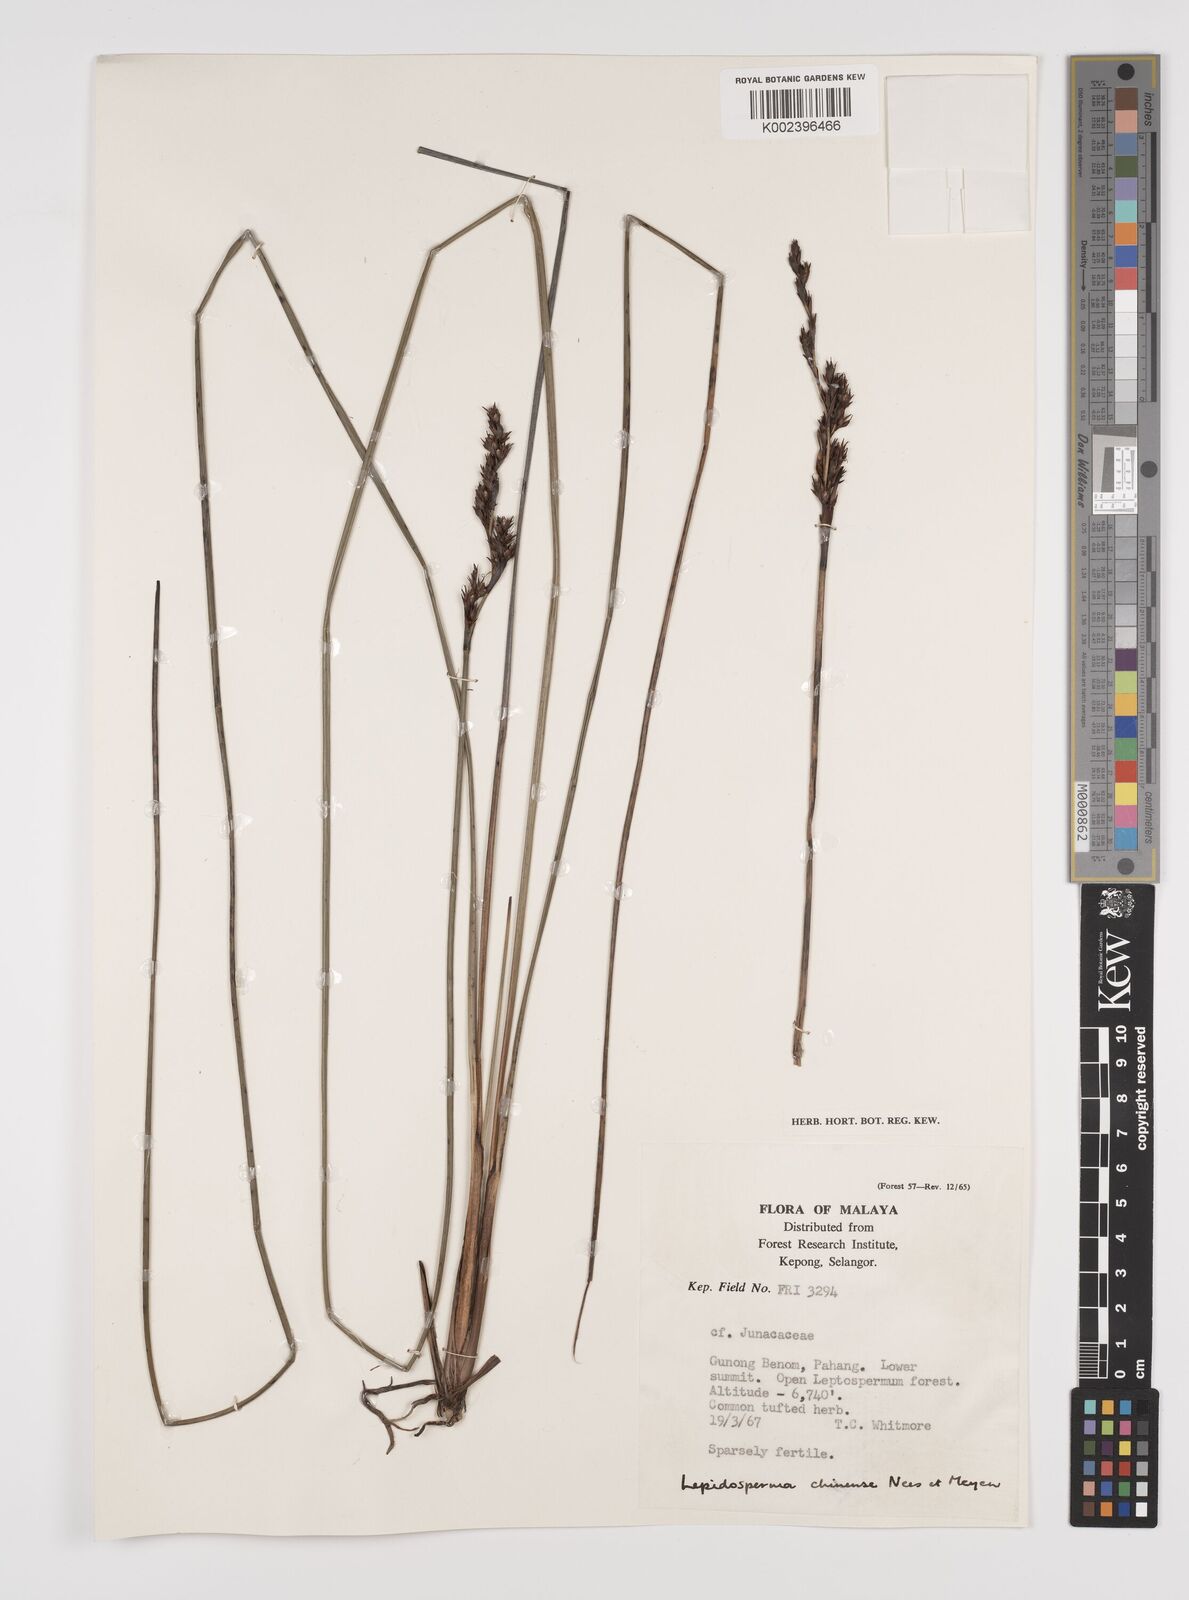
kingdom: Plantae
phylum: Tracheophyta
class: Liliopsida
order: Poales
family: Cyperaceae
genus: Lepidosperma
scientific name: Lepidosperma chinense
